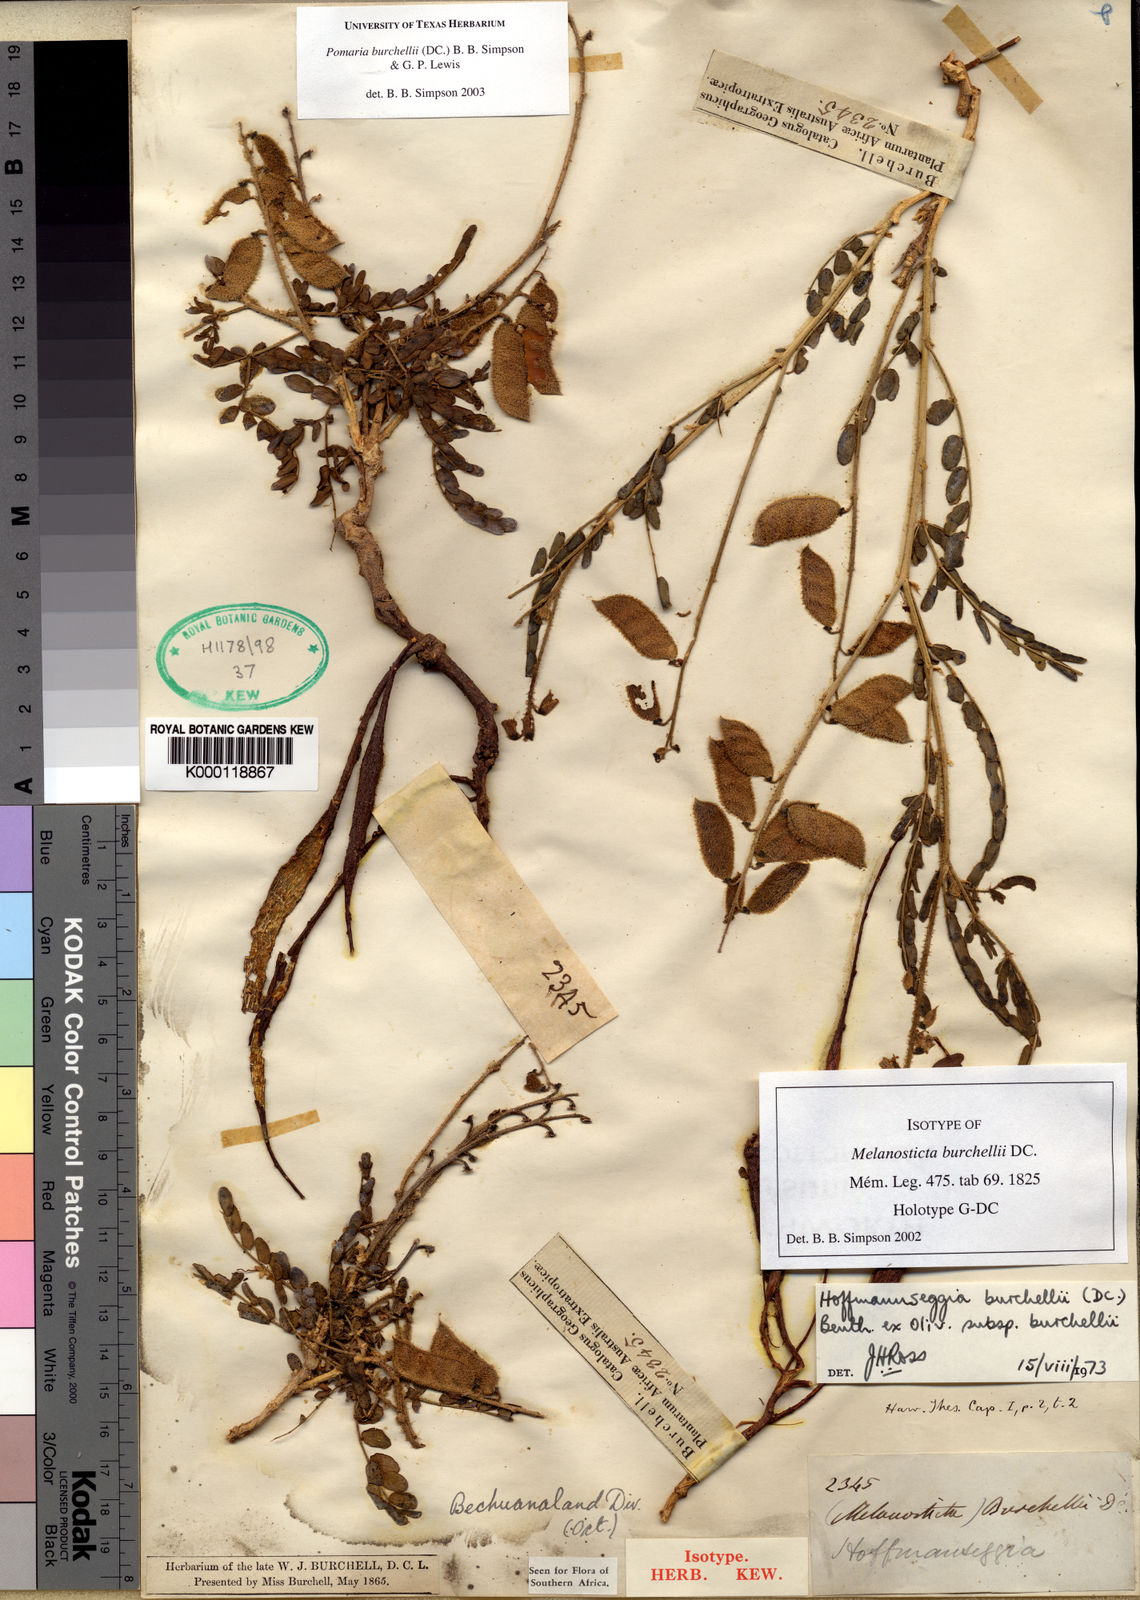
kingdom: Plantae
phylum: Tracheophyta
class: Magnoliopsida
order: Fabales
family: Fabaceae
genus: Pomaria
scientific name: Pomaria burchellii
